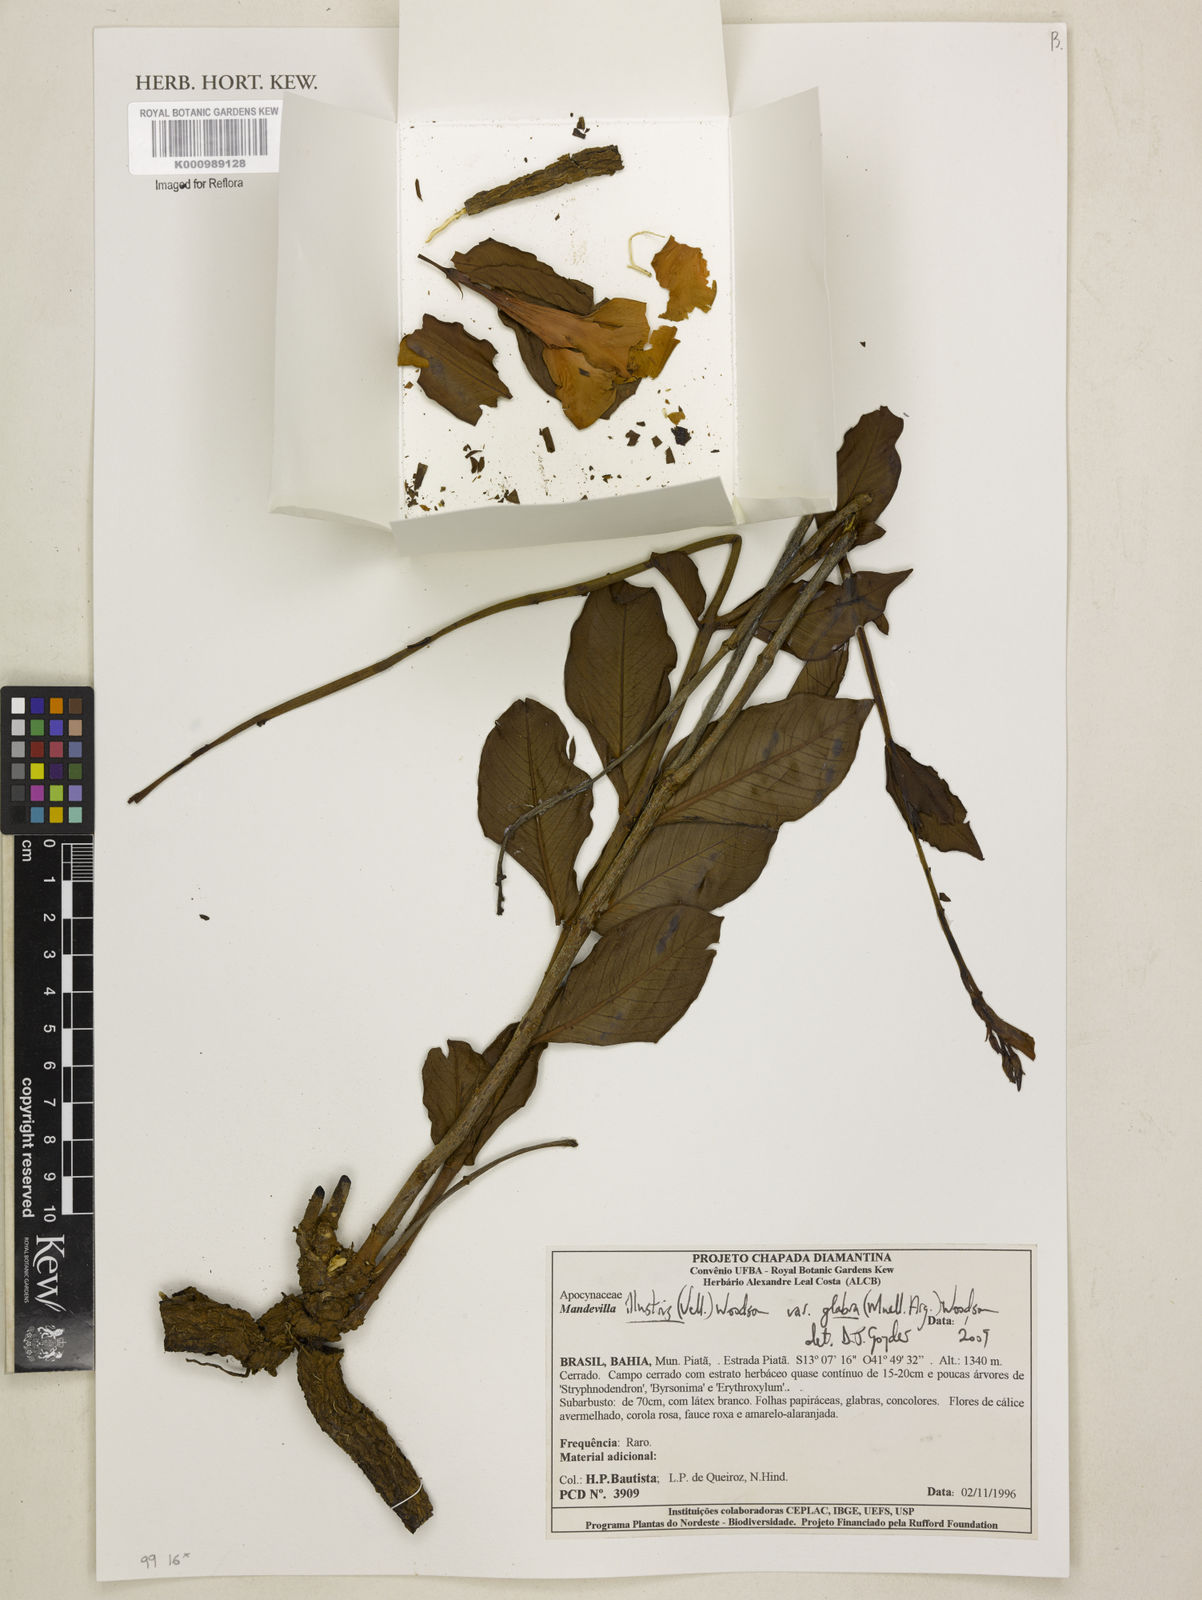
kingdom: Plantae
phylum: Tracheophyta
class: Magnoliopsida
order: Gentianales
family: Apocynaceae
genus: Mandevilla
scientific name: Mandevilla
